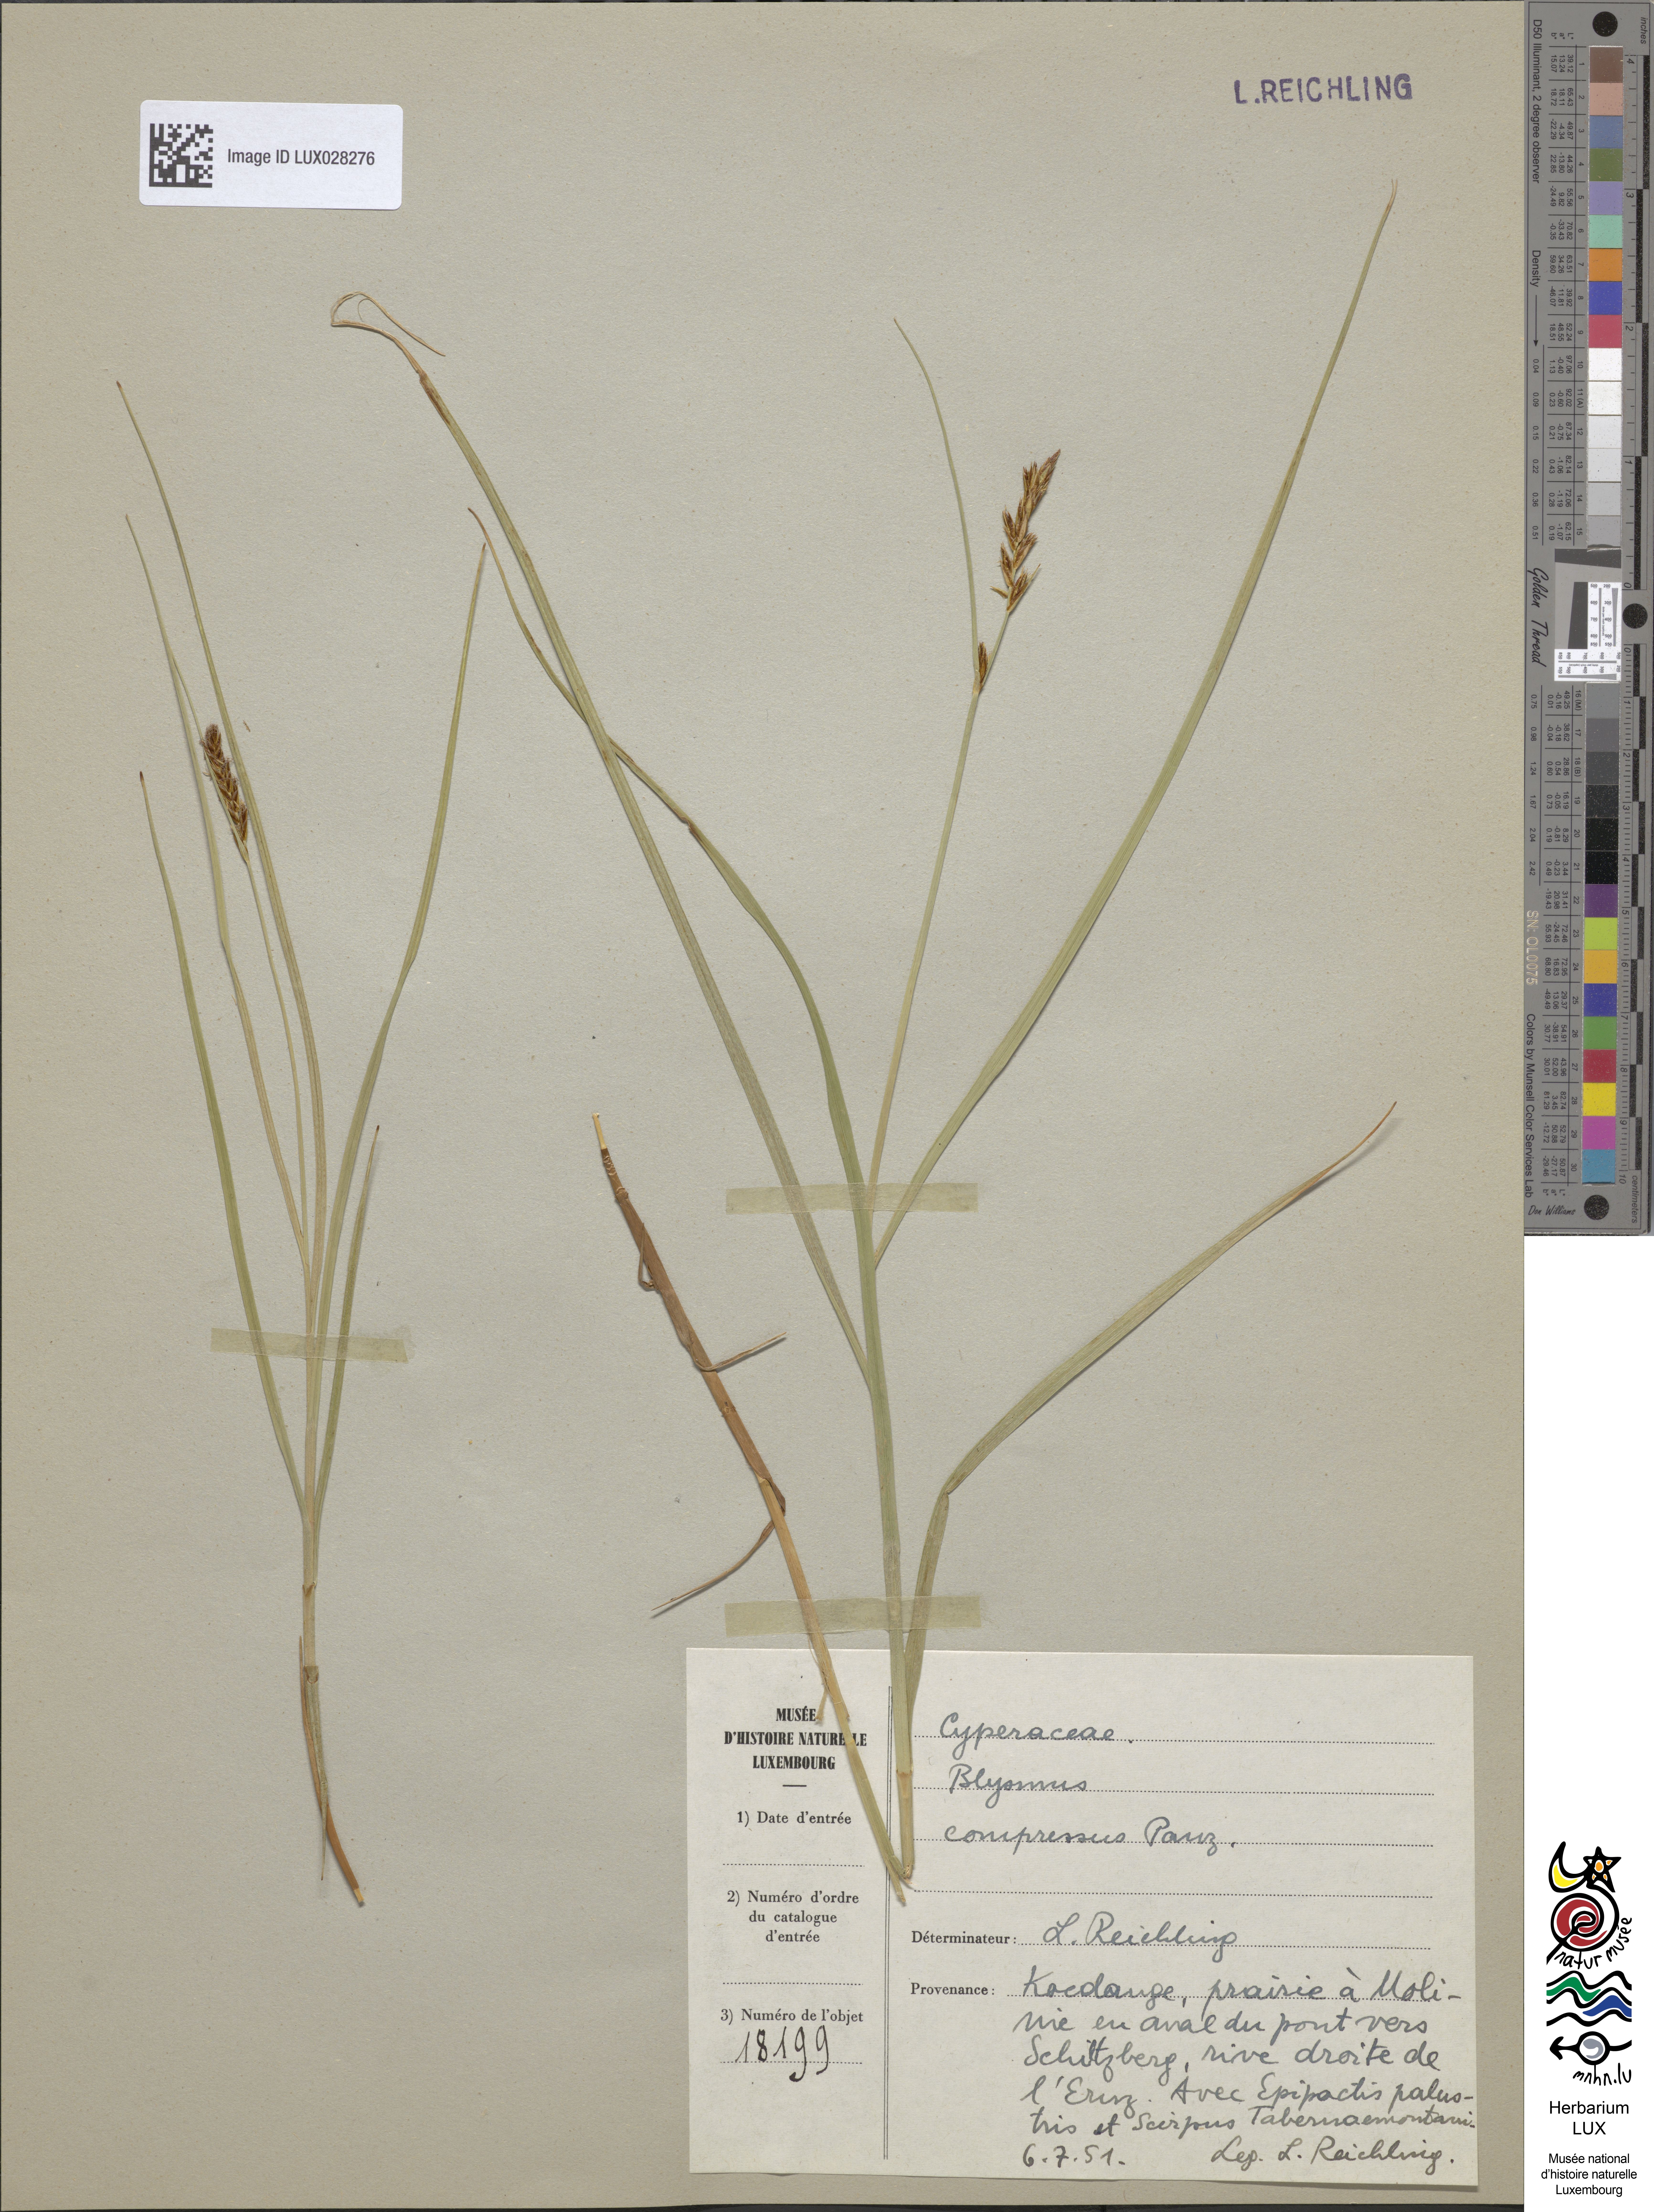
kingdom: Plantae
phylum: Tracheophyta
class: Liliopsida
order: Poales
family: Cyperaceae
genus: Blysmus
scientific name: Blysmus compressus
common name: Flat-sedge
